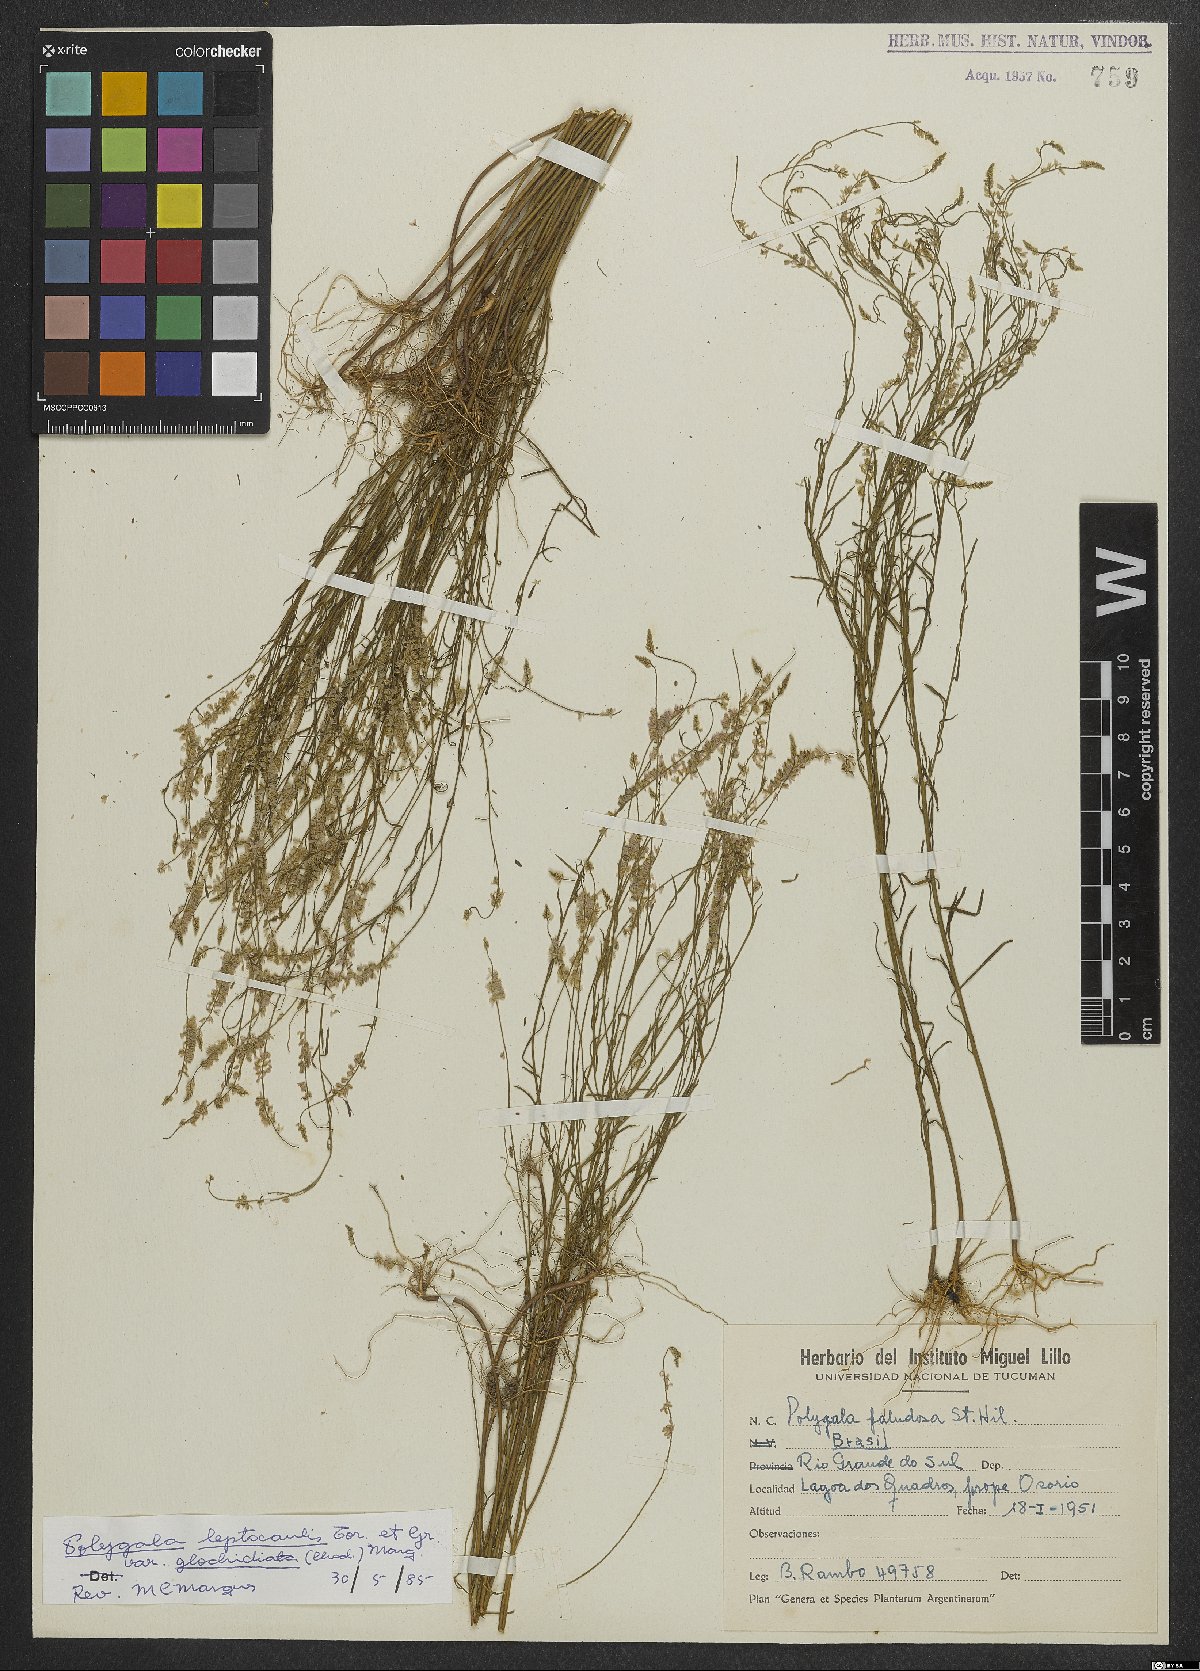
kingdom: Plantae
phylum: Tracheophyta
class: Magnoliopsida
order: Fabales
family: Polygalaceae
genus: Polygala
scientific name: Polygala tenella
